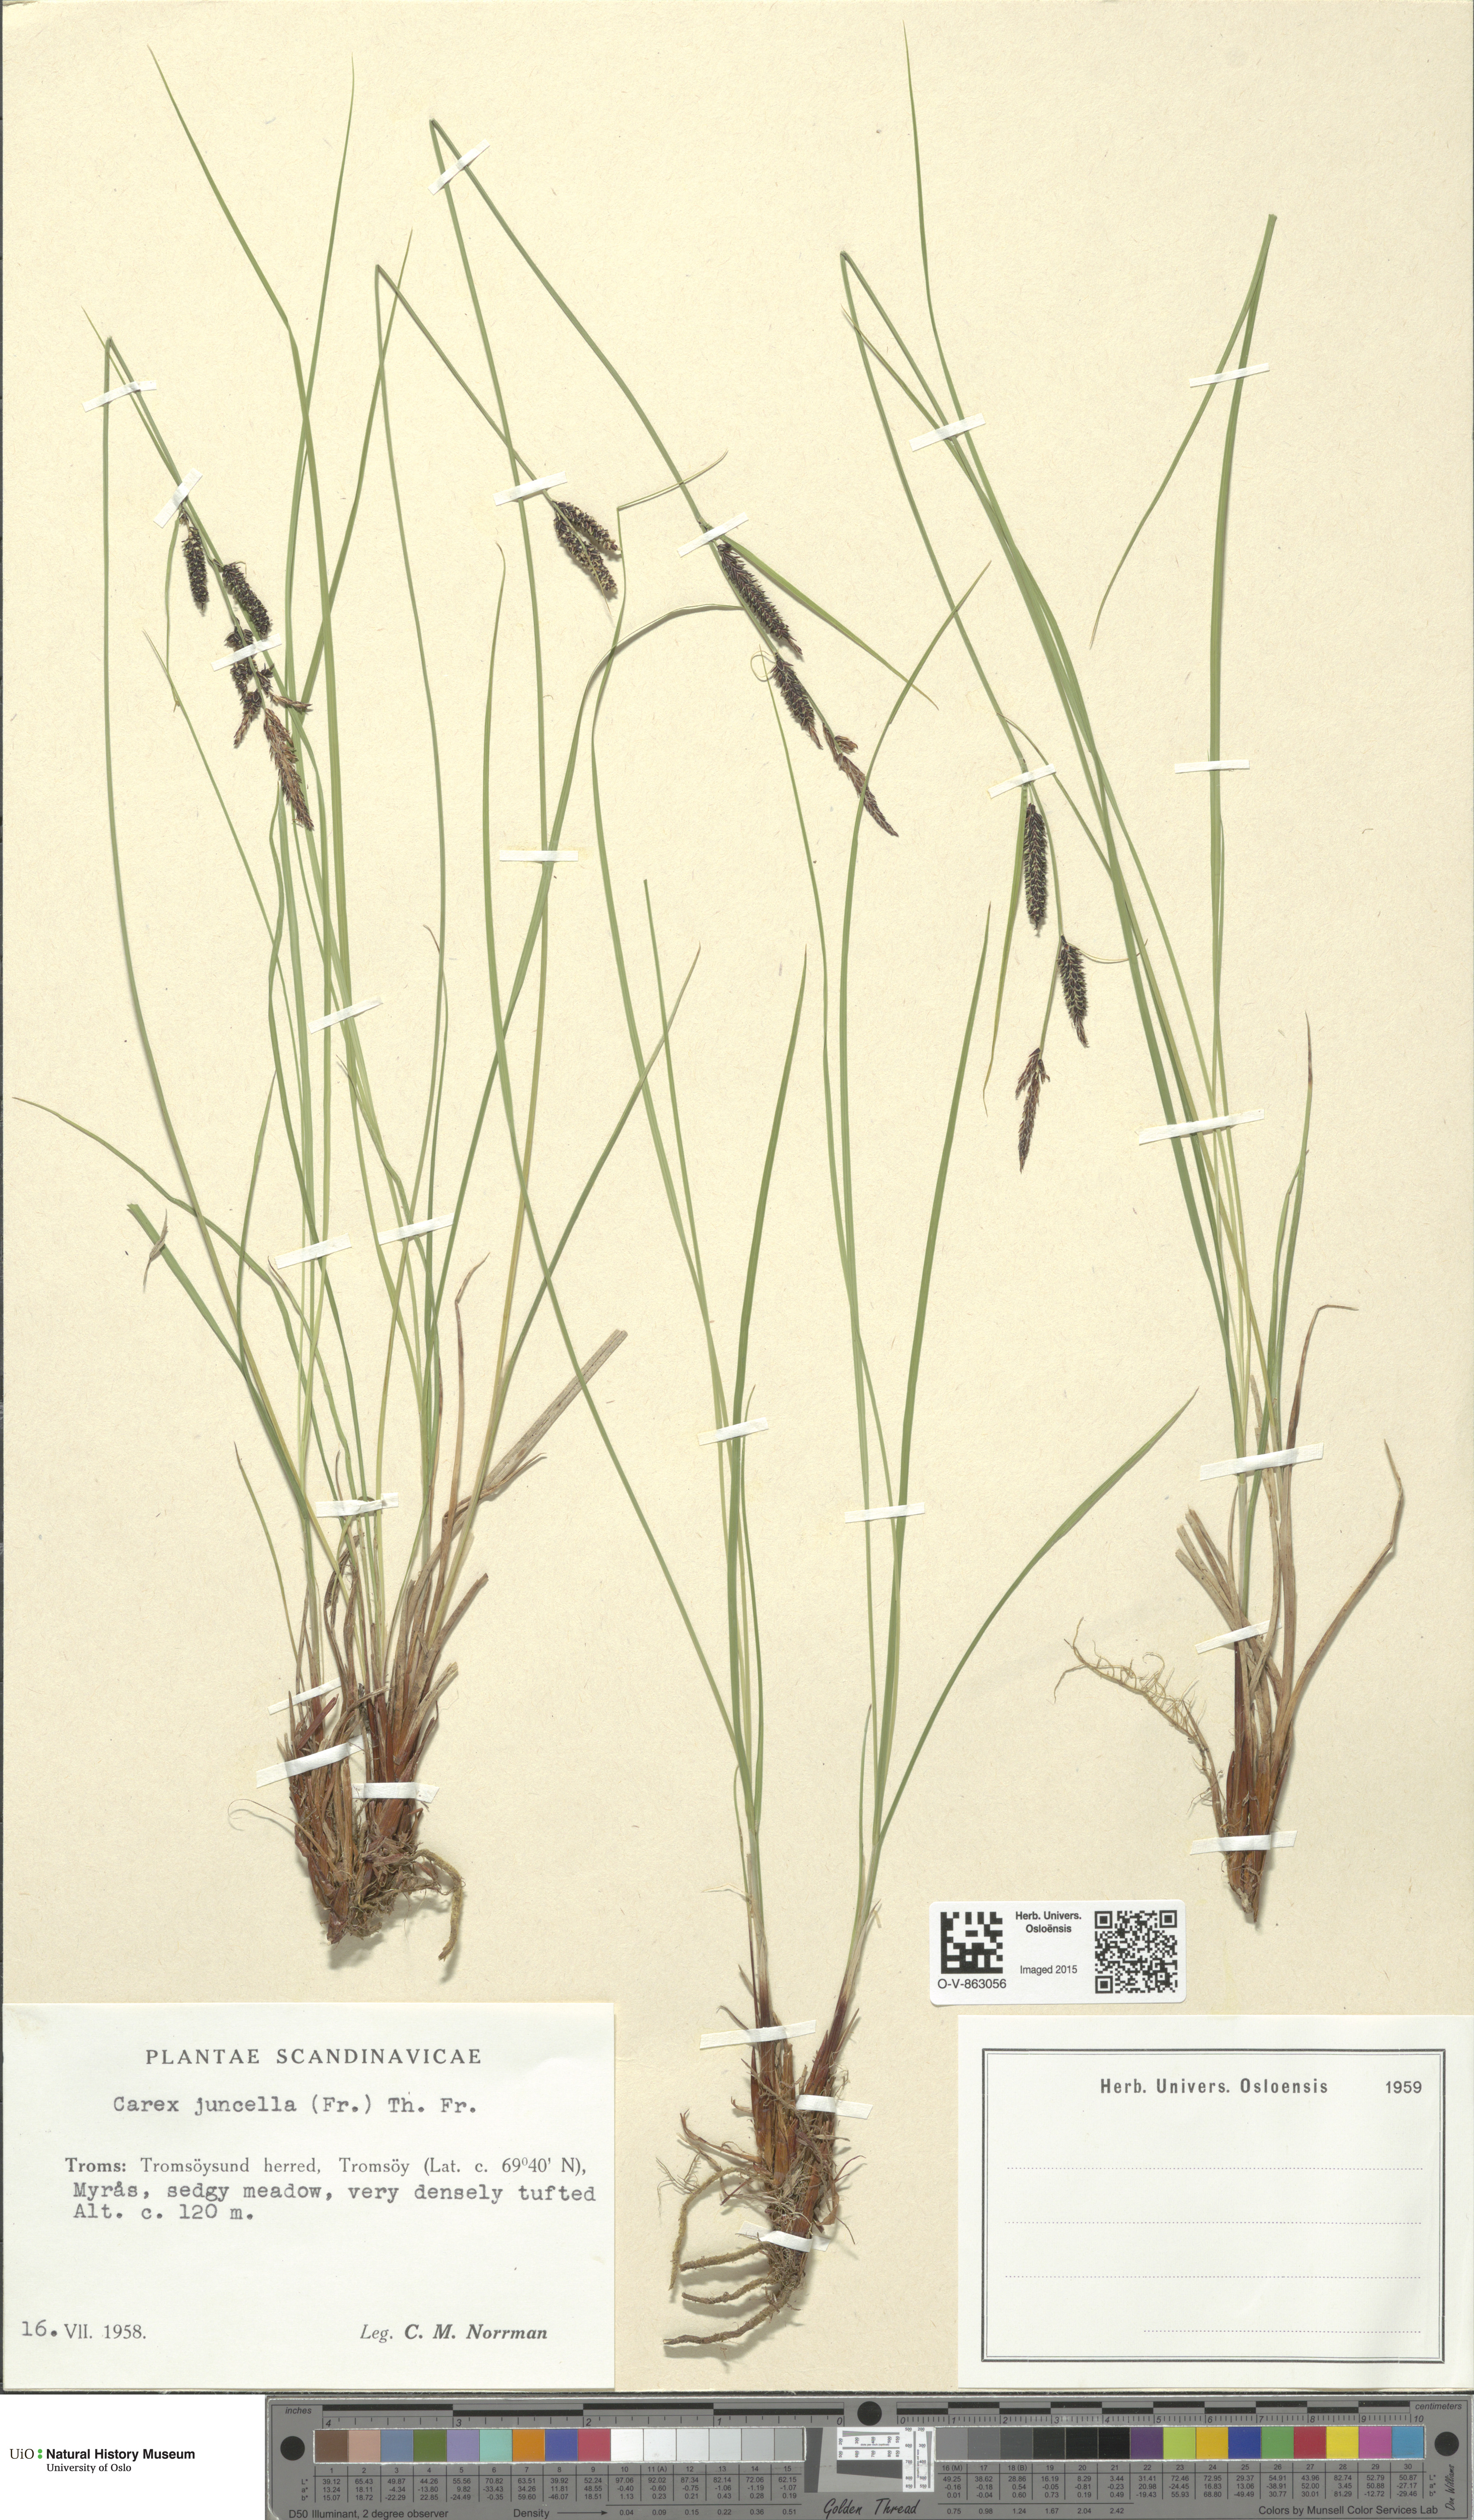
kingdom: Plantae
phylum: Tracheophyta
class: Liliopsida
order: Poales
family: Cyperaceae
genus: Carex
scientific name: Carex nigra
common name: Common sedge
